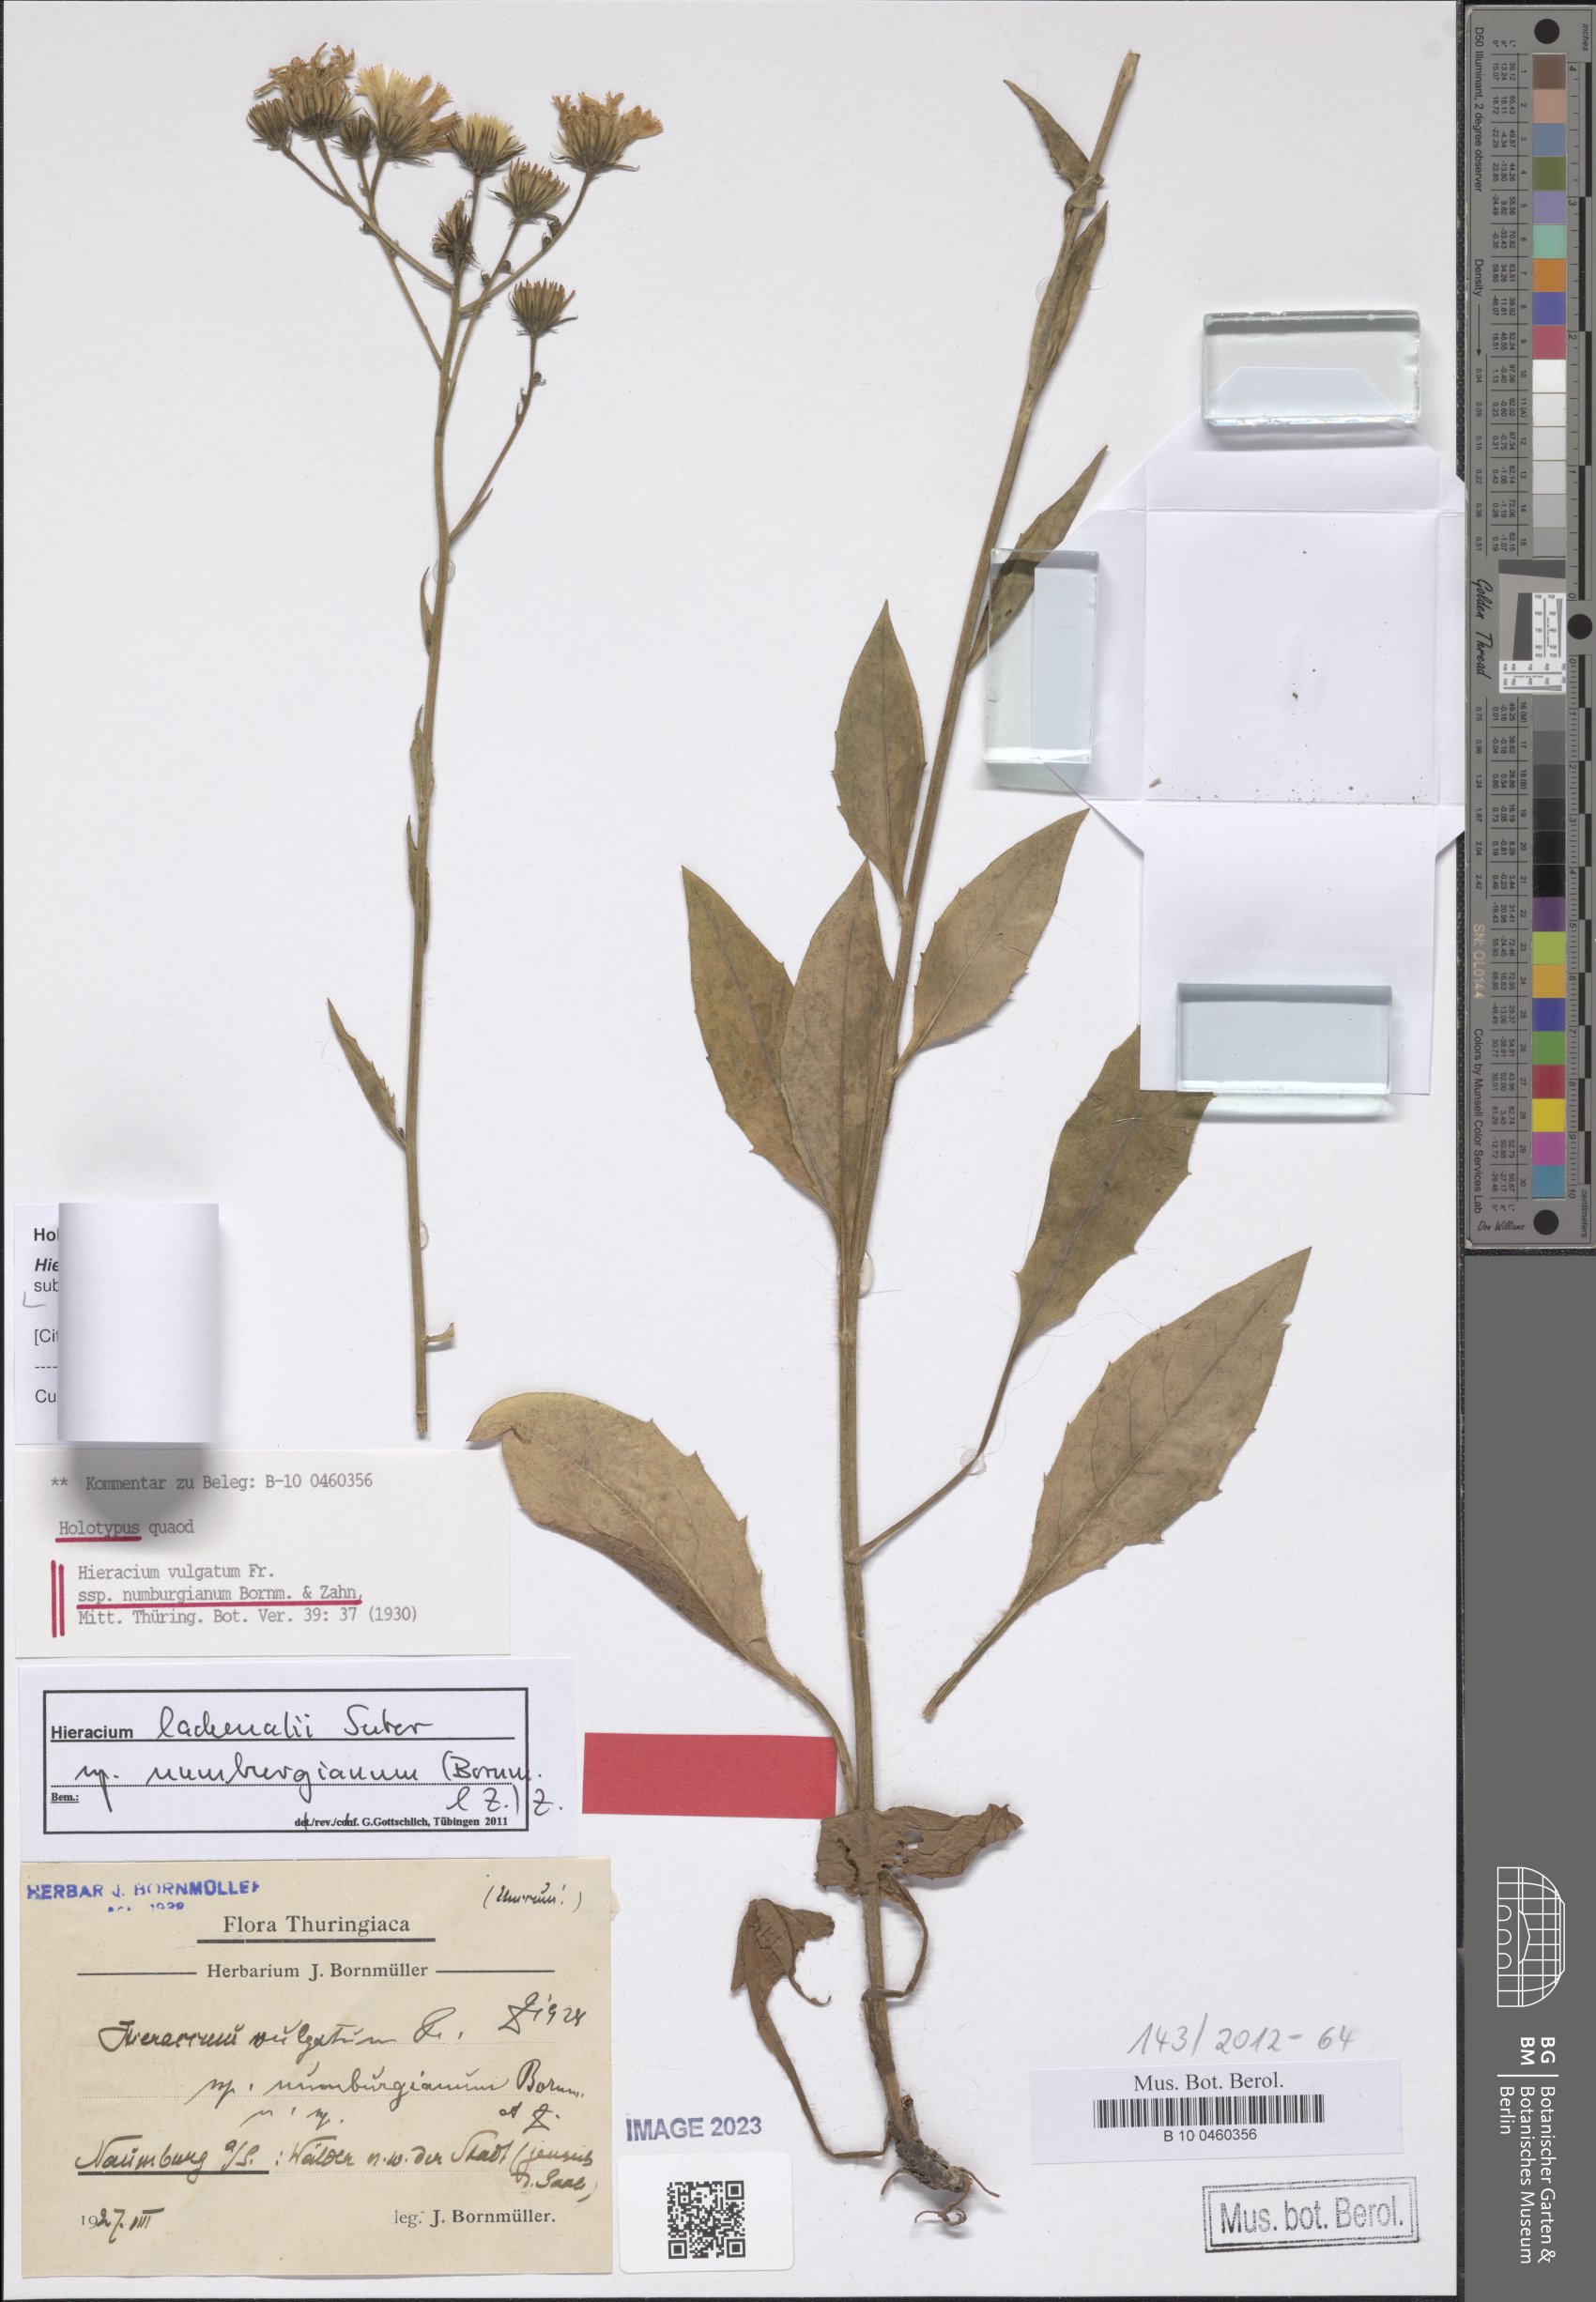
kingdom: Plantae
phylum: Tracheophyta
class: Magnoliopsida
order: Asterales
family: Asteraceae
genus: Hieracium
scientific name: Hieracium lachenalii
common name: Common hawkweed
